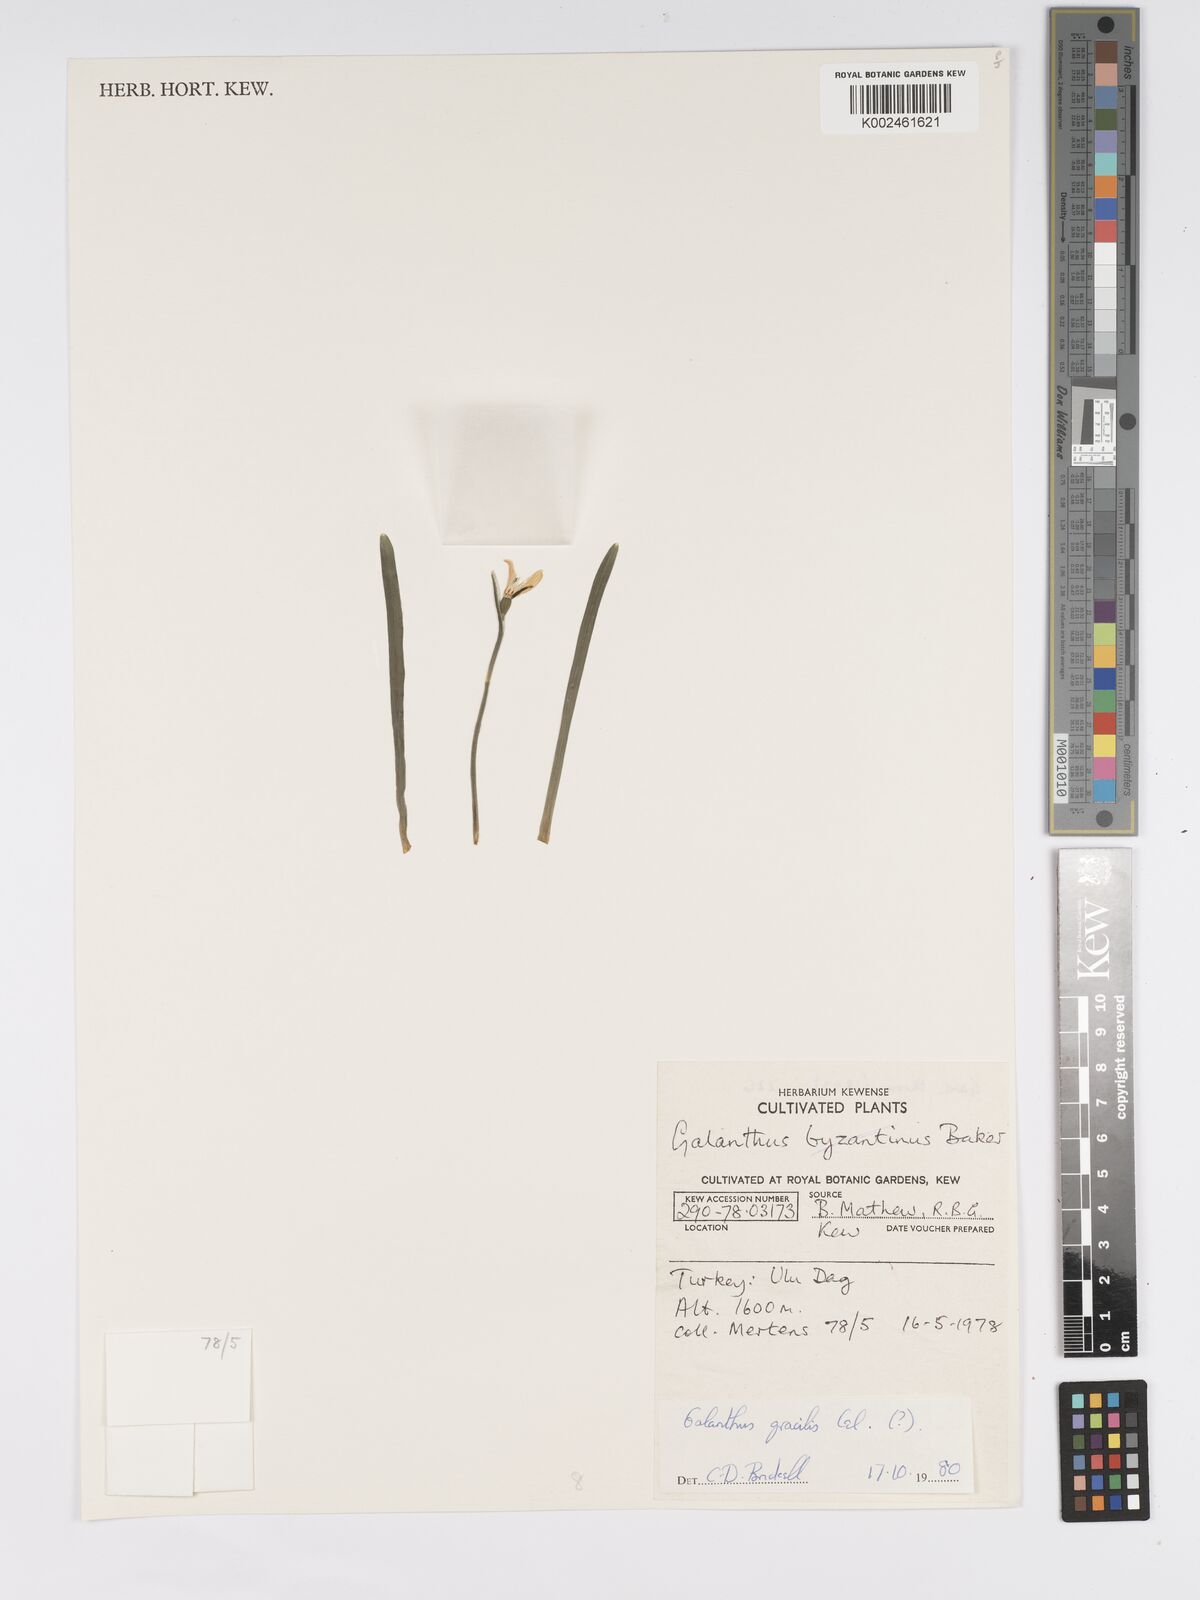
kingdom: Plantae
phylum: Tracheophyta
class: Liliopsida
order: Asparagales
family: Amaryllidaceae
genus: Galanthus
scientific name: Galanthus gracilis
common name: Snowdrop
